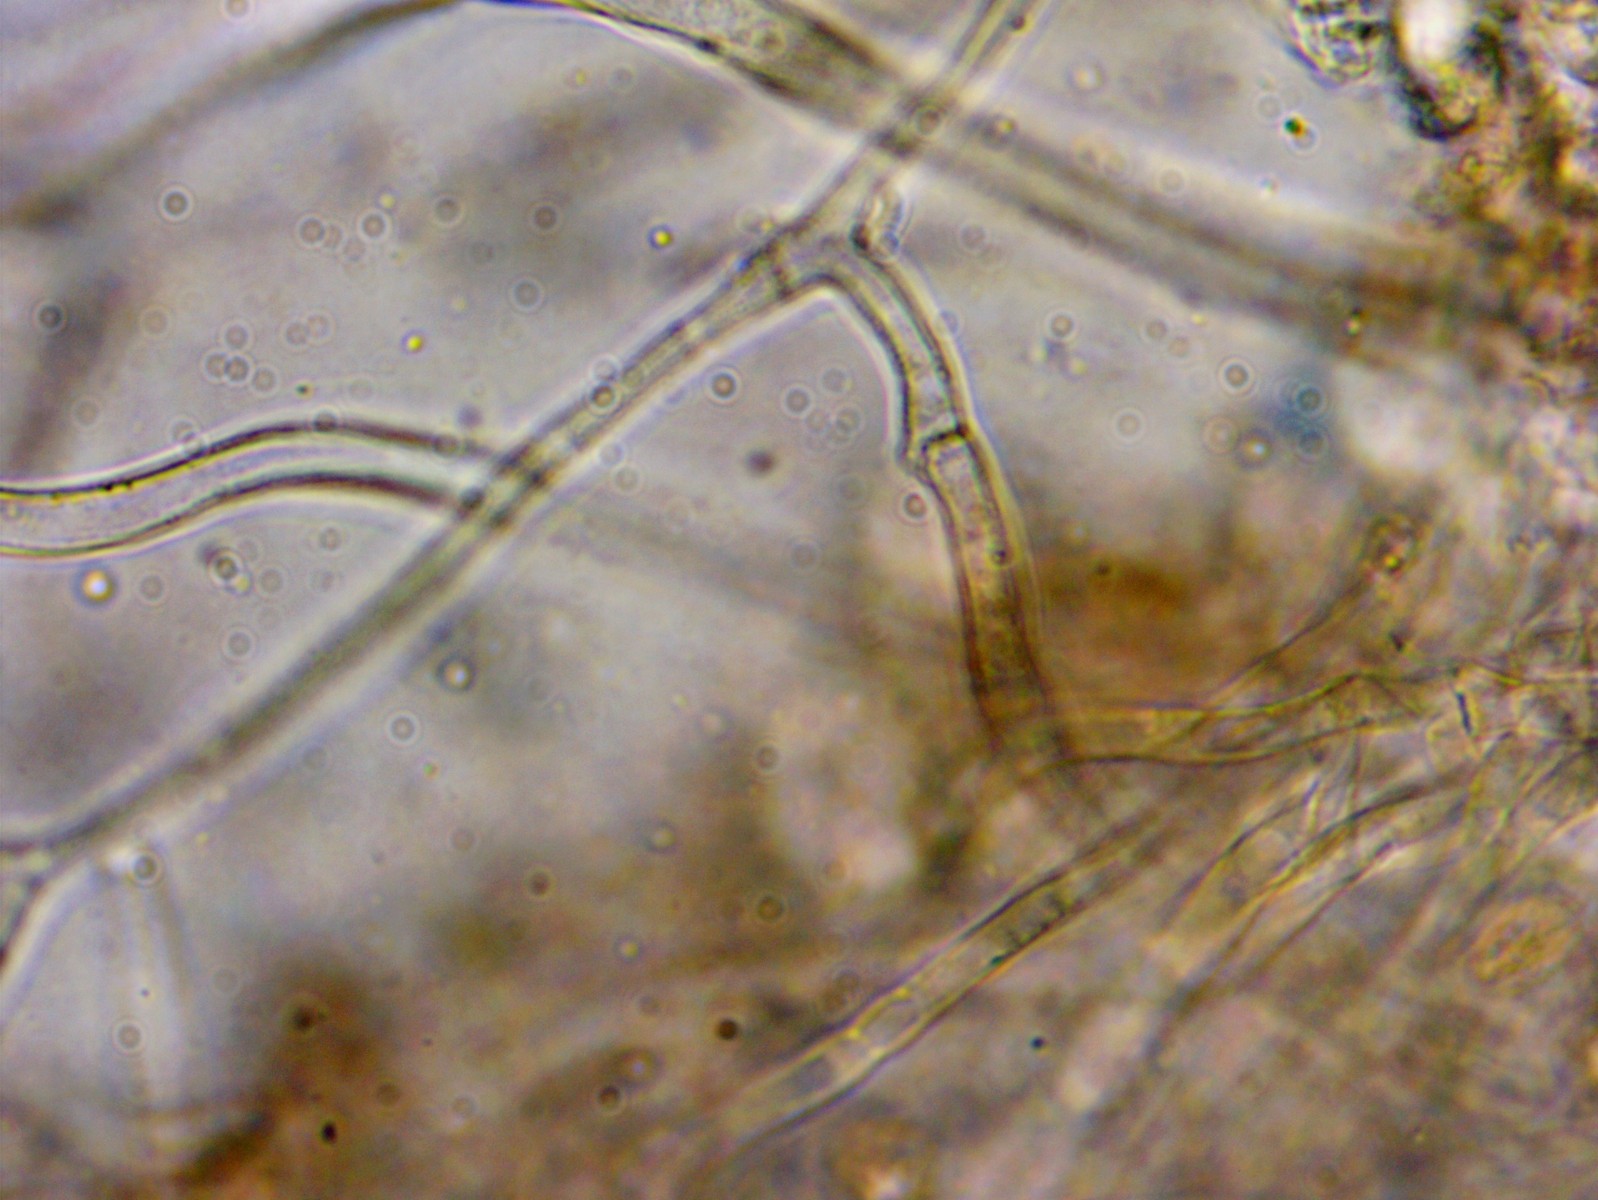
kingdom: Fungi
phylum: Basidiomycota
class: Agaricomycetes
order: Agaricales
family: Crepidotaceae
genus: Crepidotus
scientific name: Crepidotus cesatii
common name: almindelig muslingesvamp
